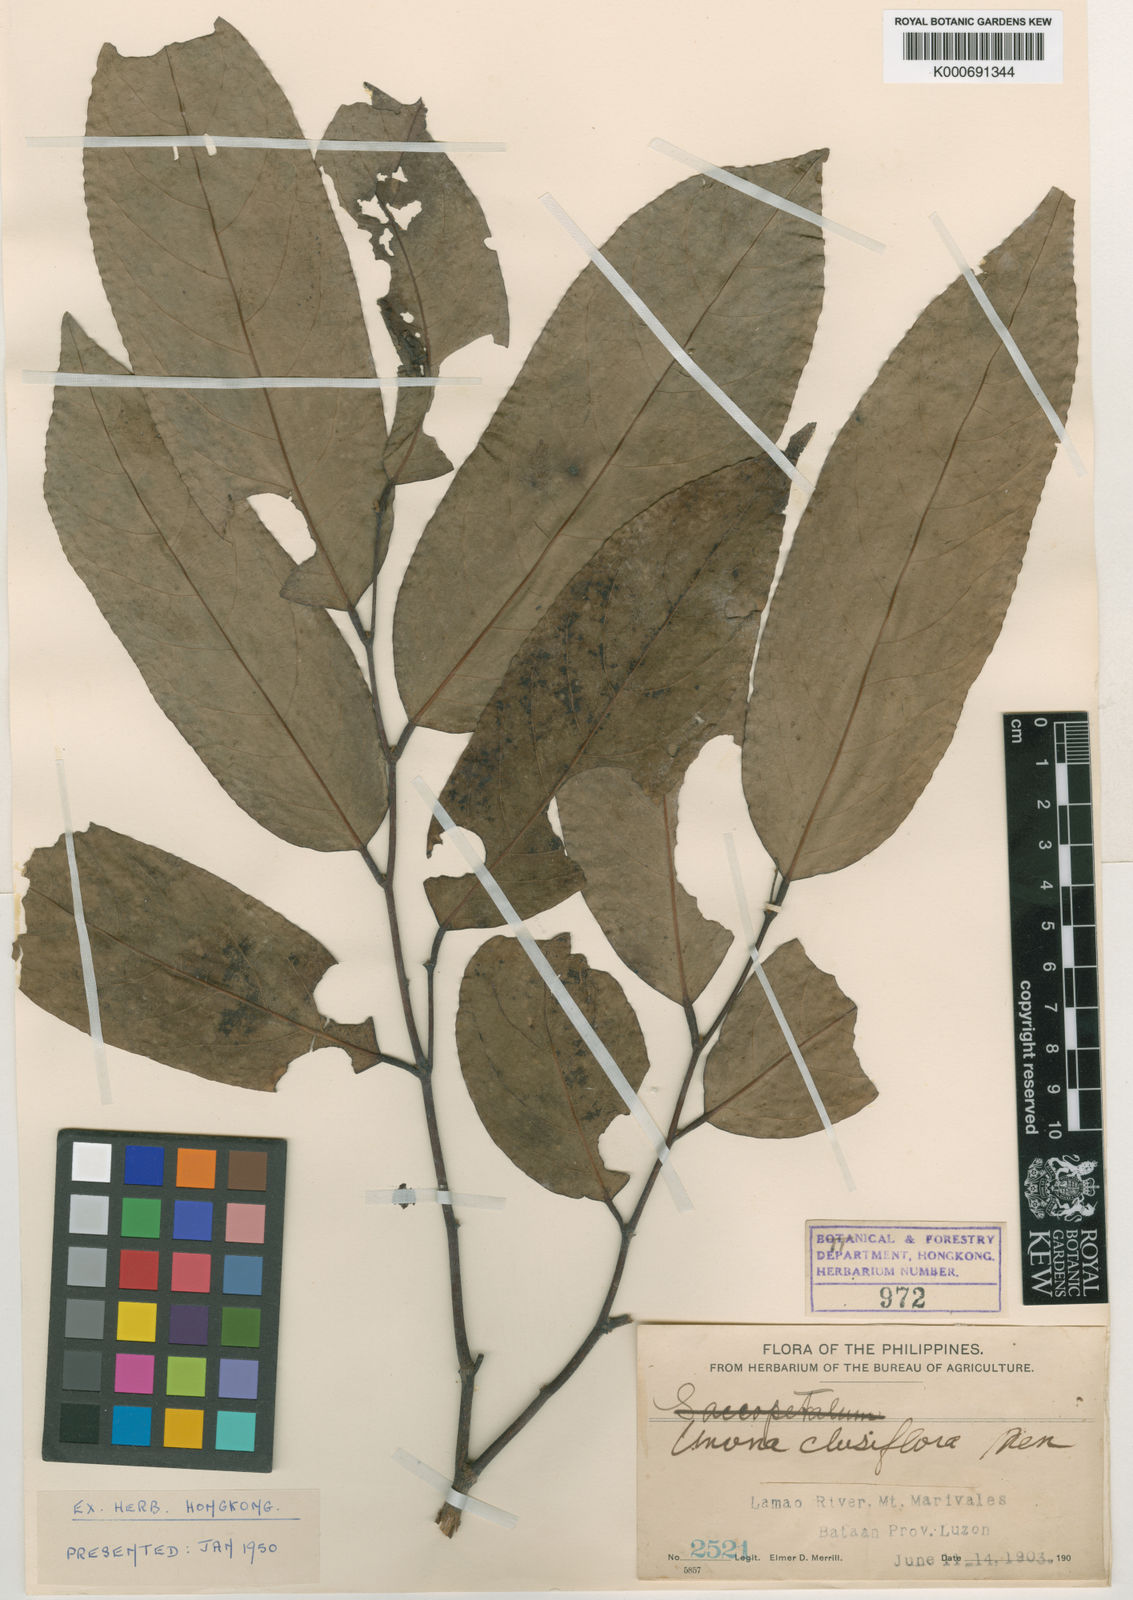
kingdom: Plantae
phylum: Tracheophyta
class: Magnoliopsida
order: Magnoliales
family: Annonaceae
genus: Dasymaschalon
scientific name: Dasymaschalon clusiflorum
